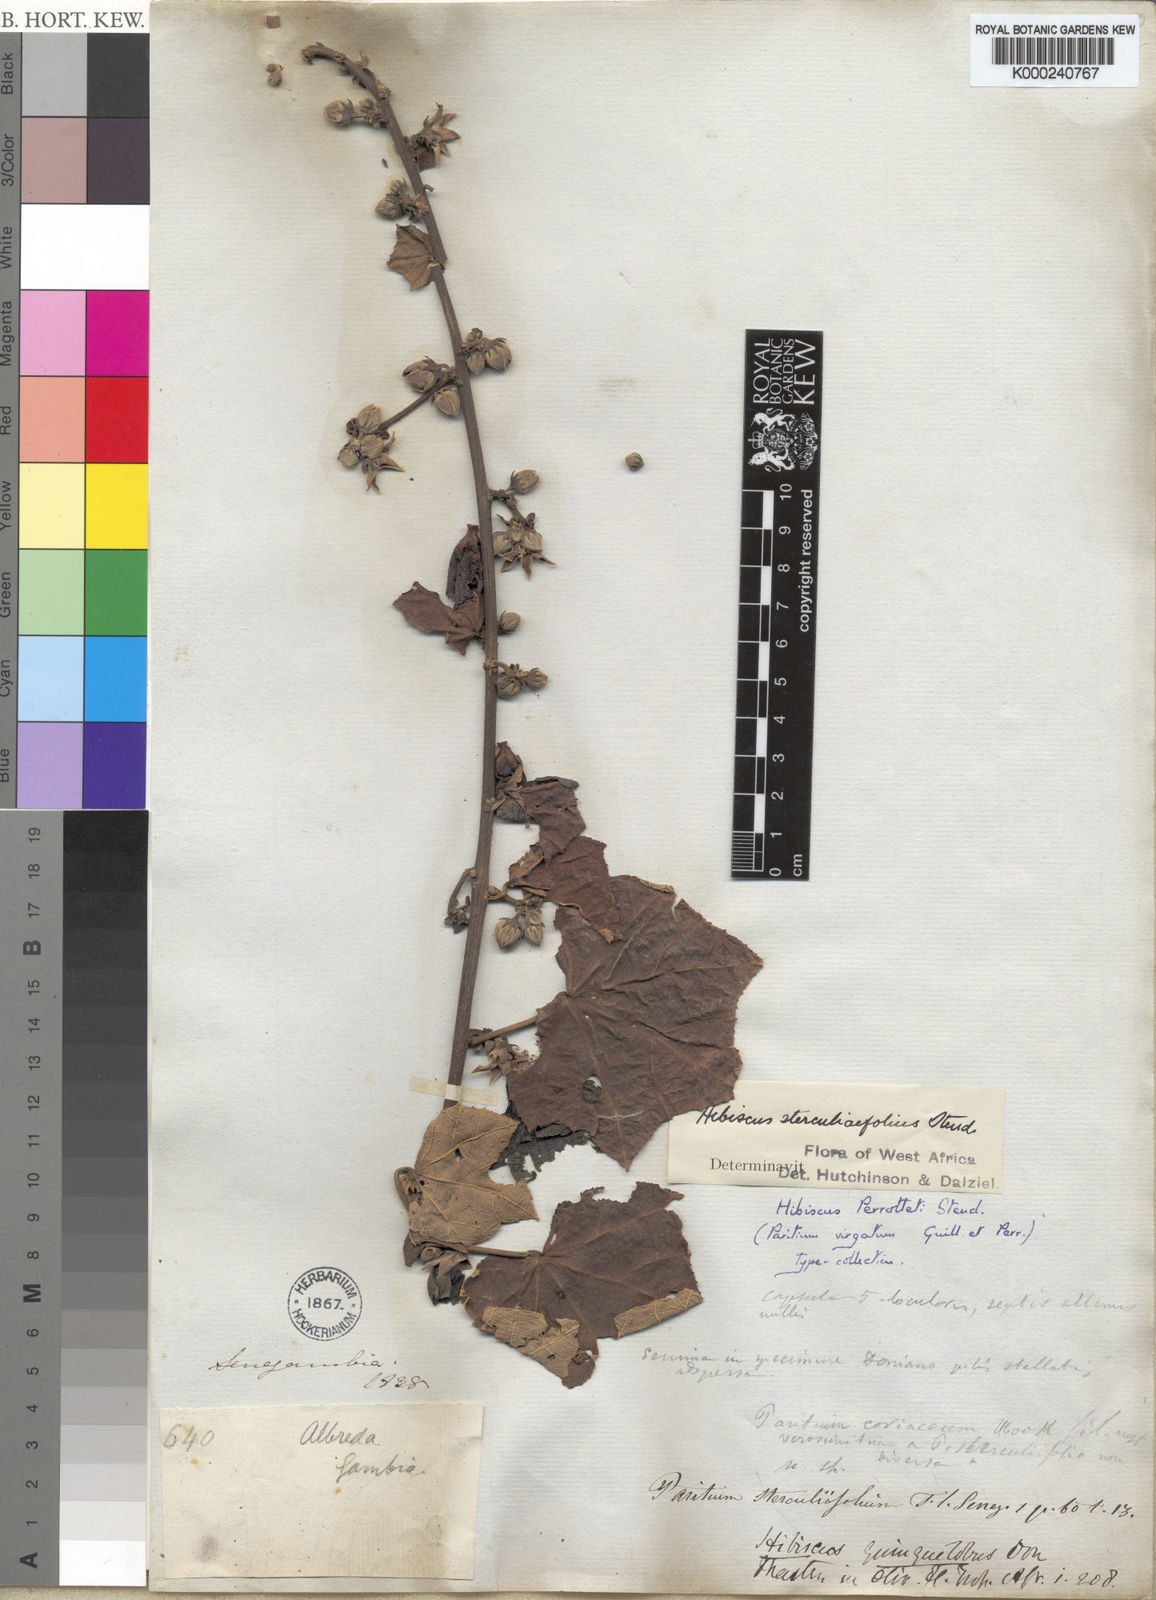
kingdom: Plantae
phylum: Tracheophyta
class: Magnoliopsida
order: Malvales
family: Malvaceae
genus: Hibiscus
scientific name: Hibiscus
